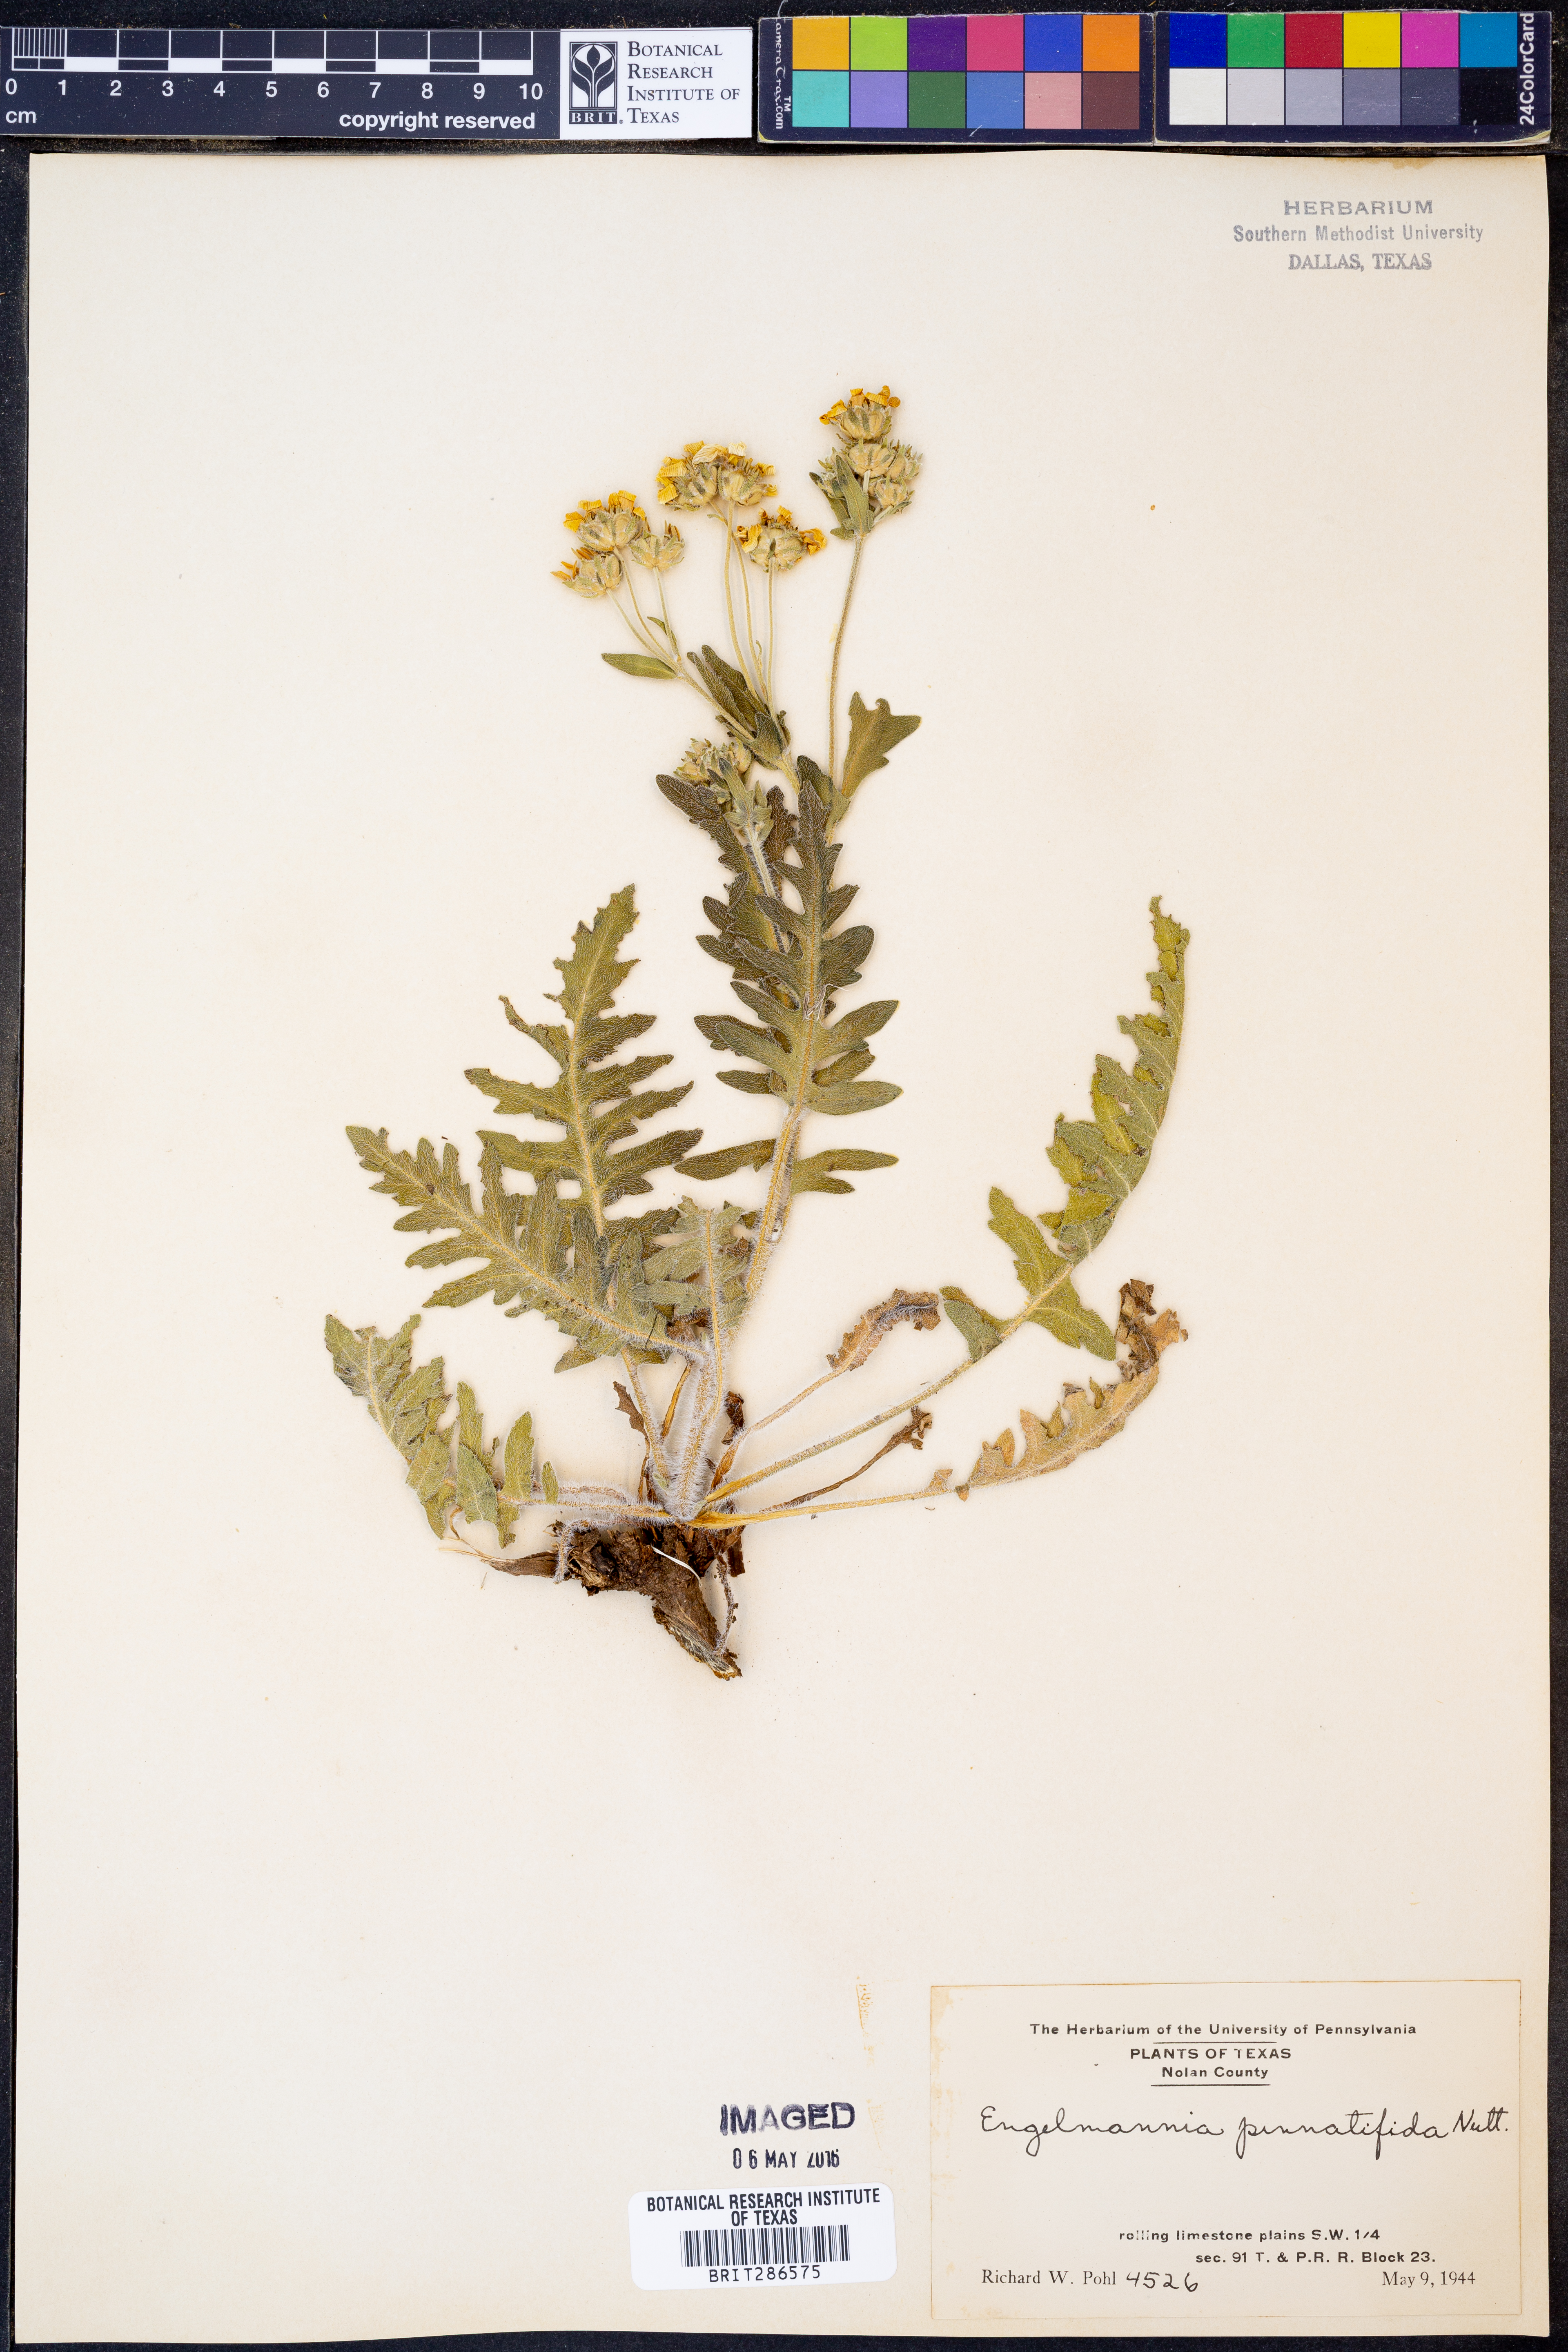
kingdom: Plantae
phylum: Tracheophyta
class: Magnoliopsida
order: Asterales
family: Asteraceae
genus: Engelmannia
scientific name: Engelmannia peristenia
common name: Engelmann's daisy
